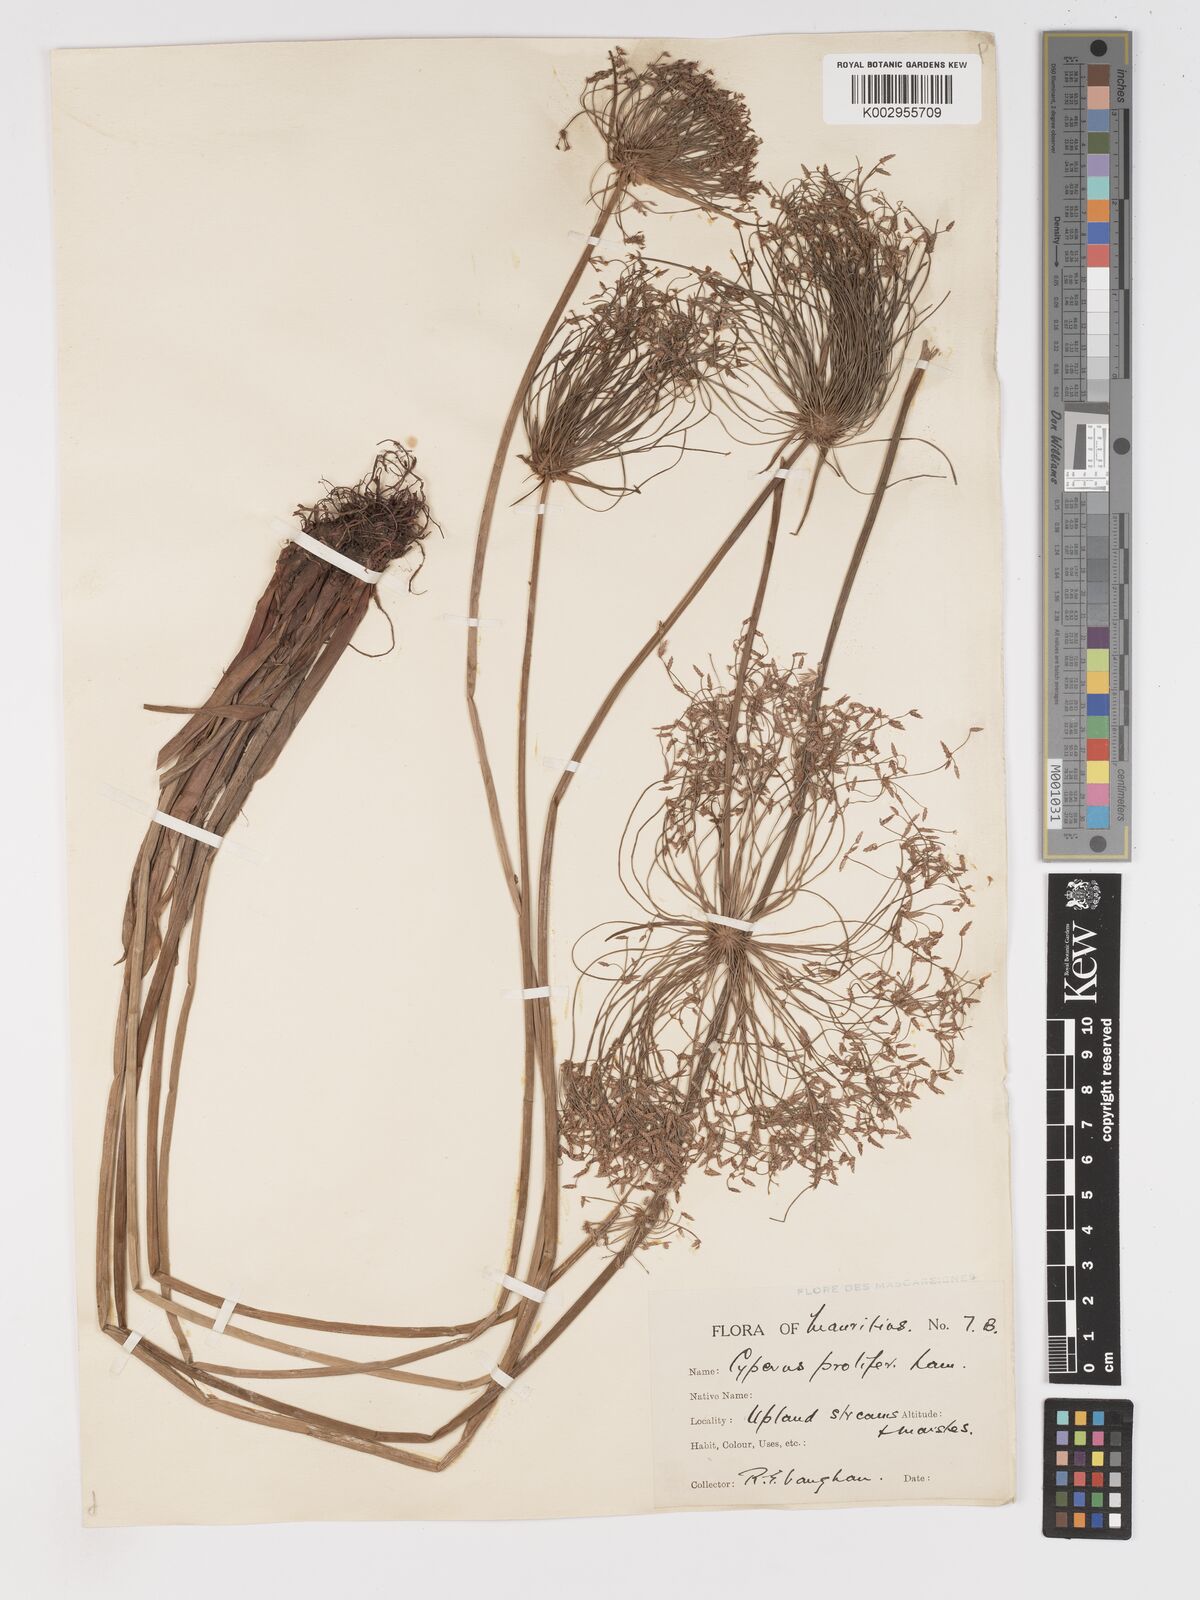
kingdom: Plantae
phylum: Tracheophyta
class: Liliopsida
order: Poales
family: Cyperaceae
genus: Cyperus
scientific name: Cyperus prolifer
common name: Miniature flatsedge
